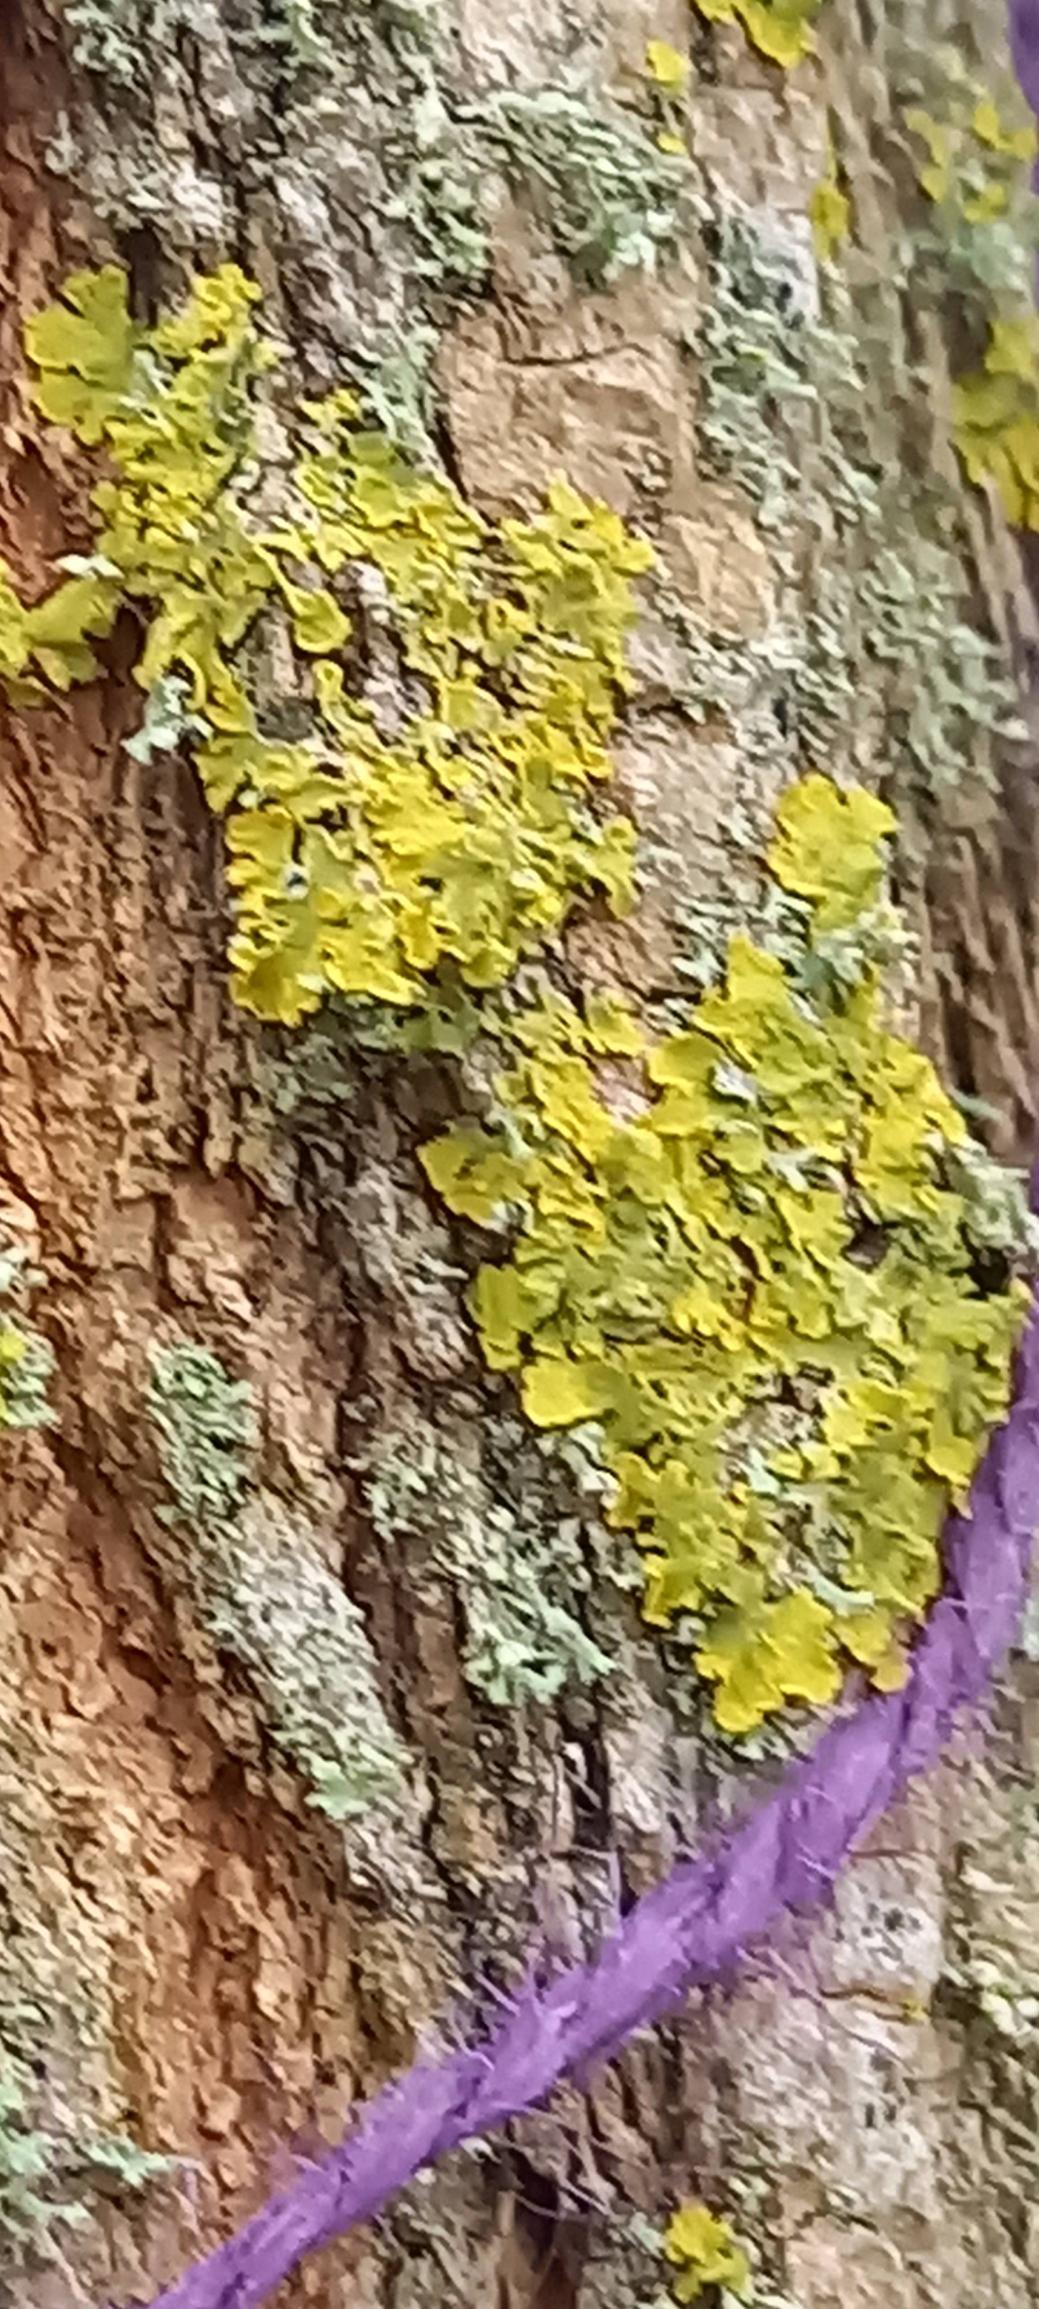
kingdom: Fungi
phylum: Ascomycota
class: Lecanoromycetes
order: Teloschistales
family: Teloschistaceae
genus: Xanthoria
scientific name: Xanthoria parietina
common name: Almindelig væggelav
